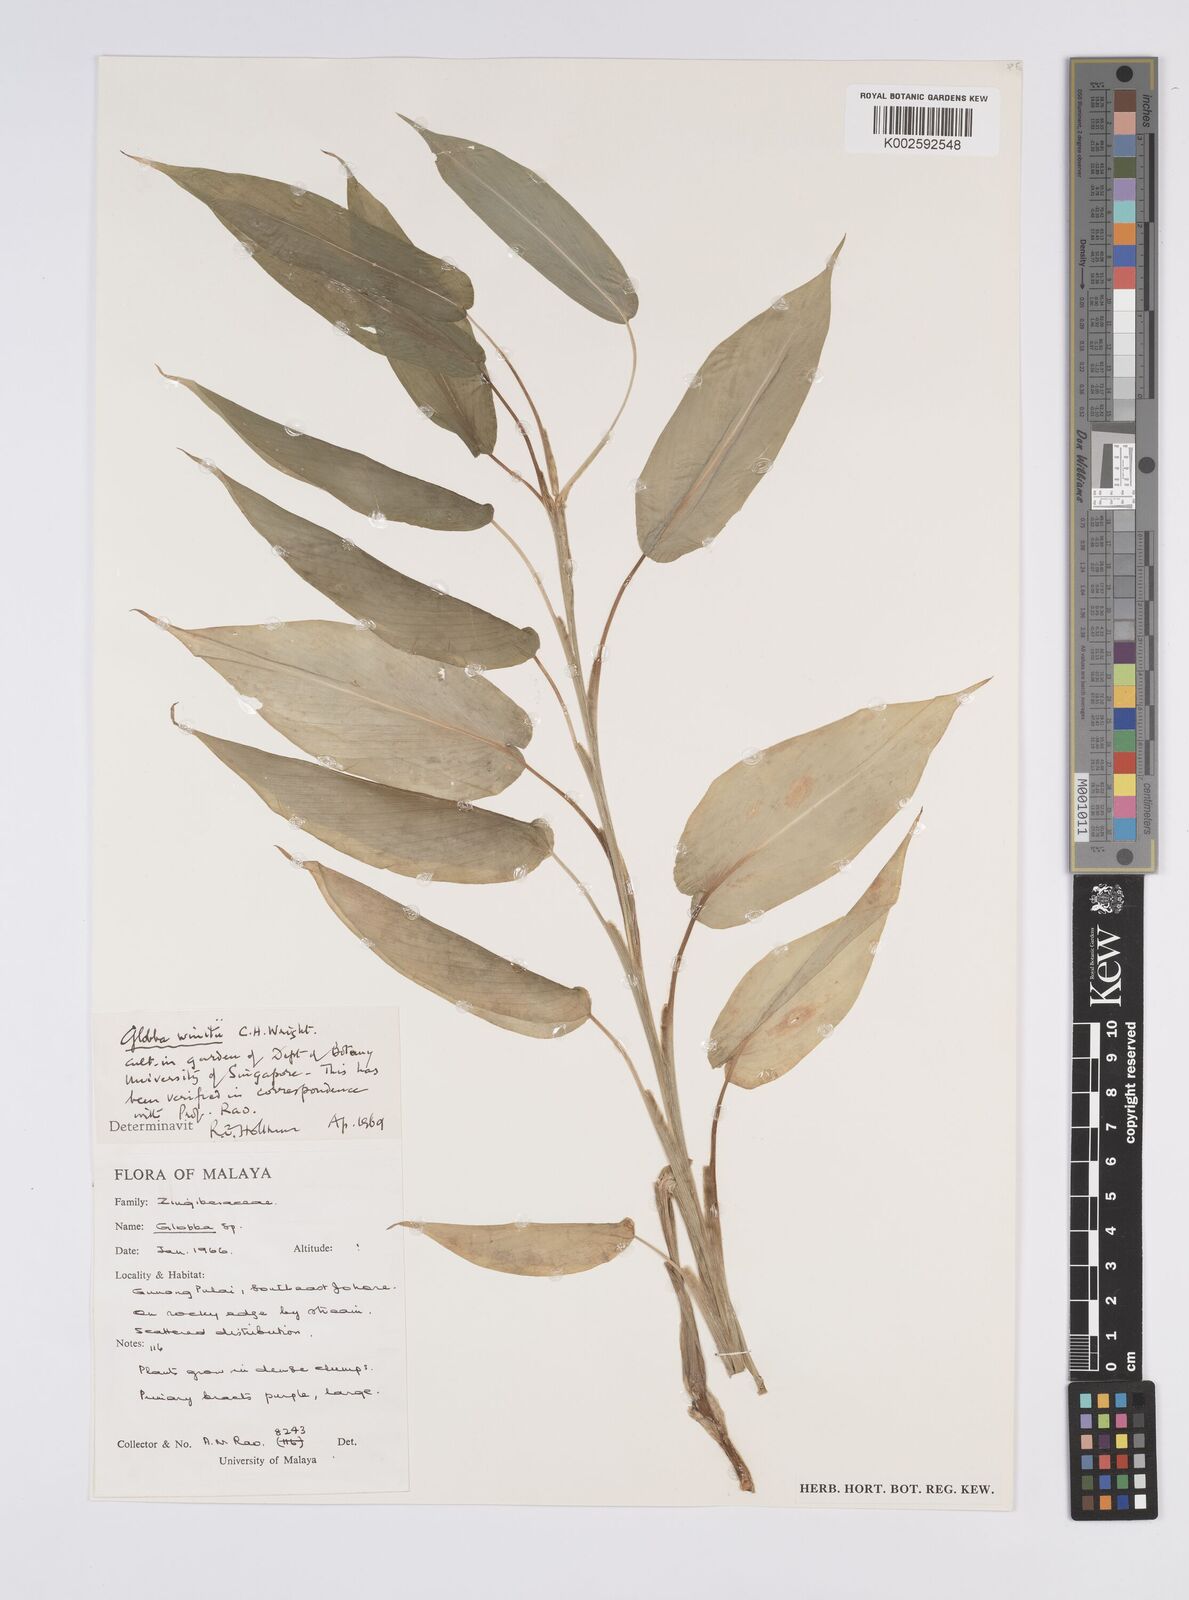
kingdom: Plantae
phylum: Tracheophyta
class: Liliopsida
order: Zingiberales
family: Zingiberaceae
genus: Globba
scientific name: Globba winitii
